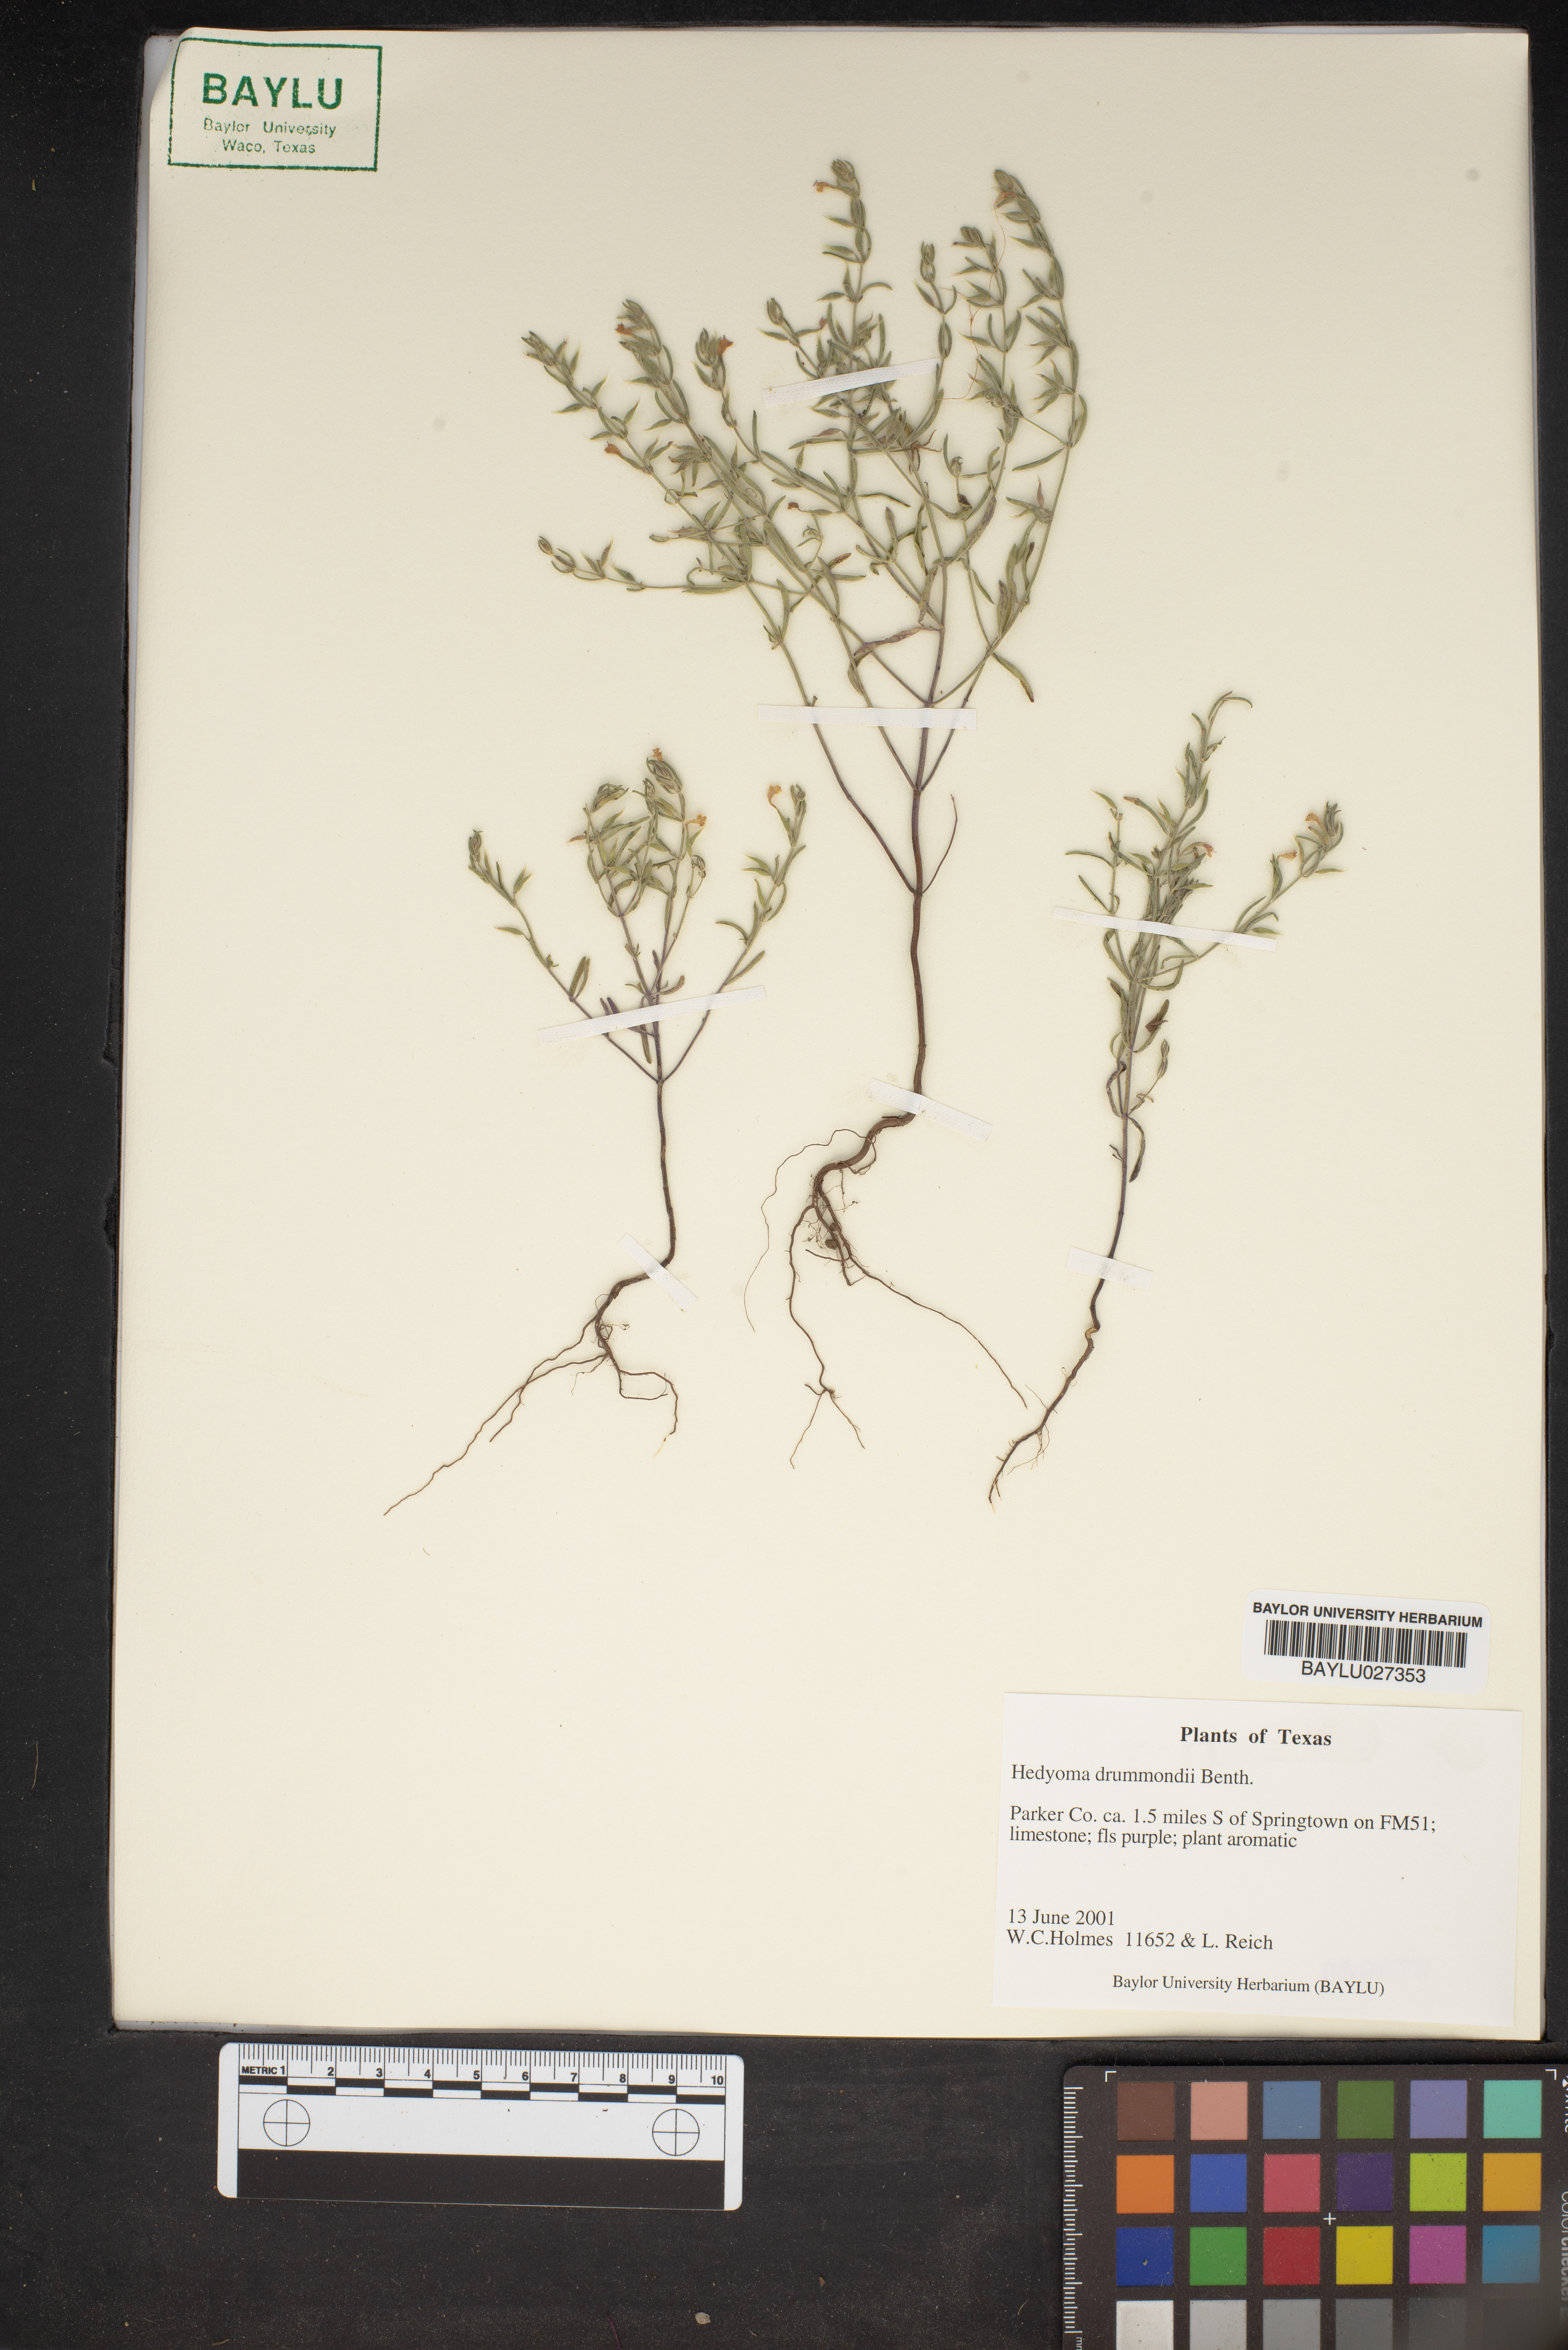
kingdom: Plantae
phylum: Tracheophyta
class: Magnoliopsida
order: Lamiales
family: Lamiaceae
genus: Hedeoma
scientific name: Hedeoma drummondii
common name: New mexico pennyroyal
